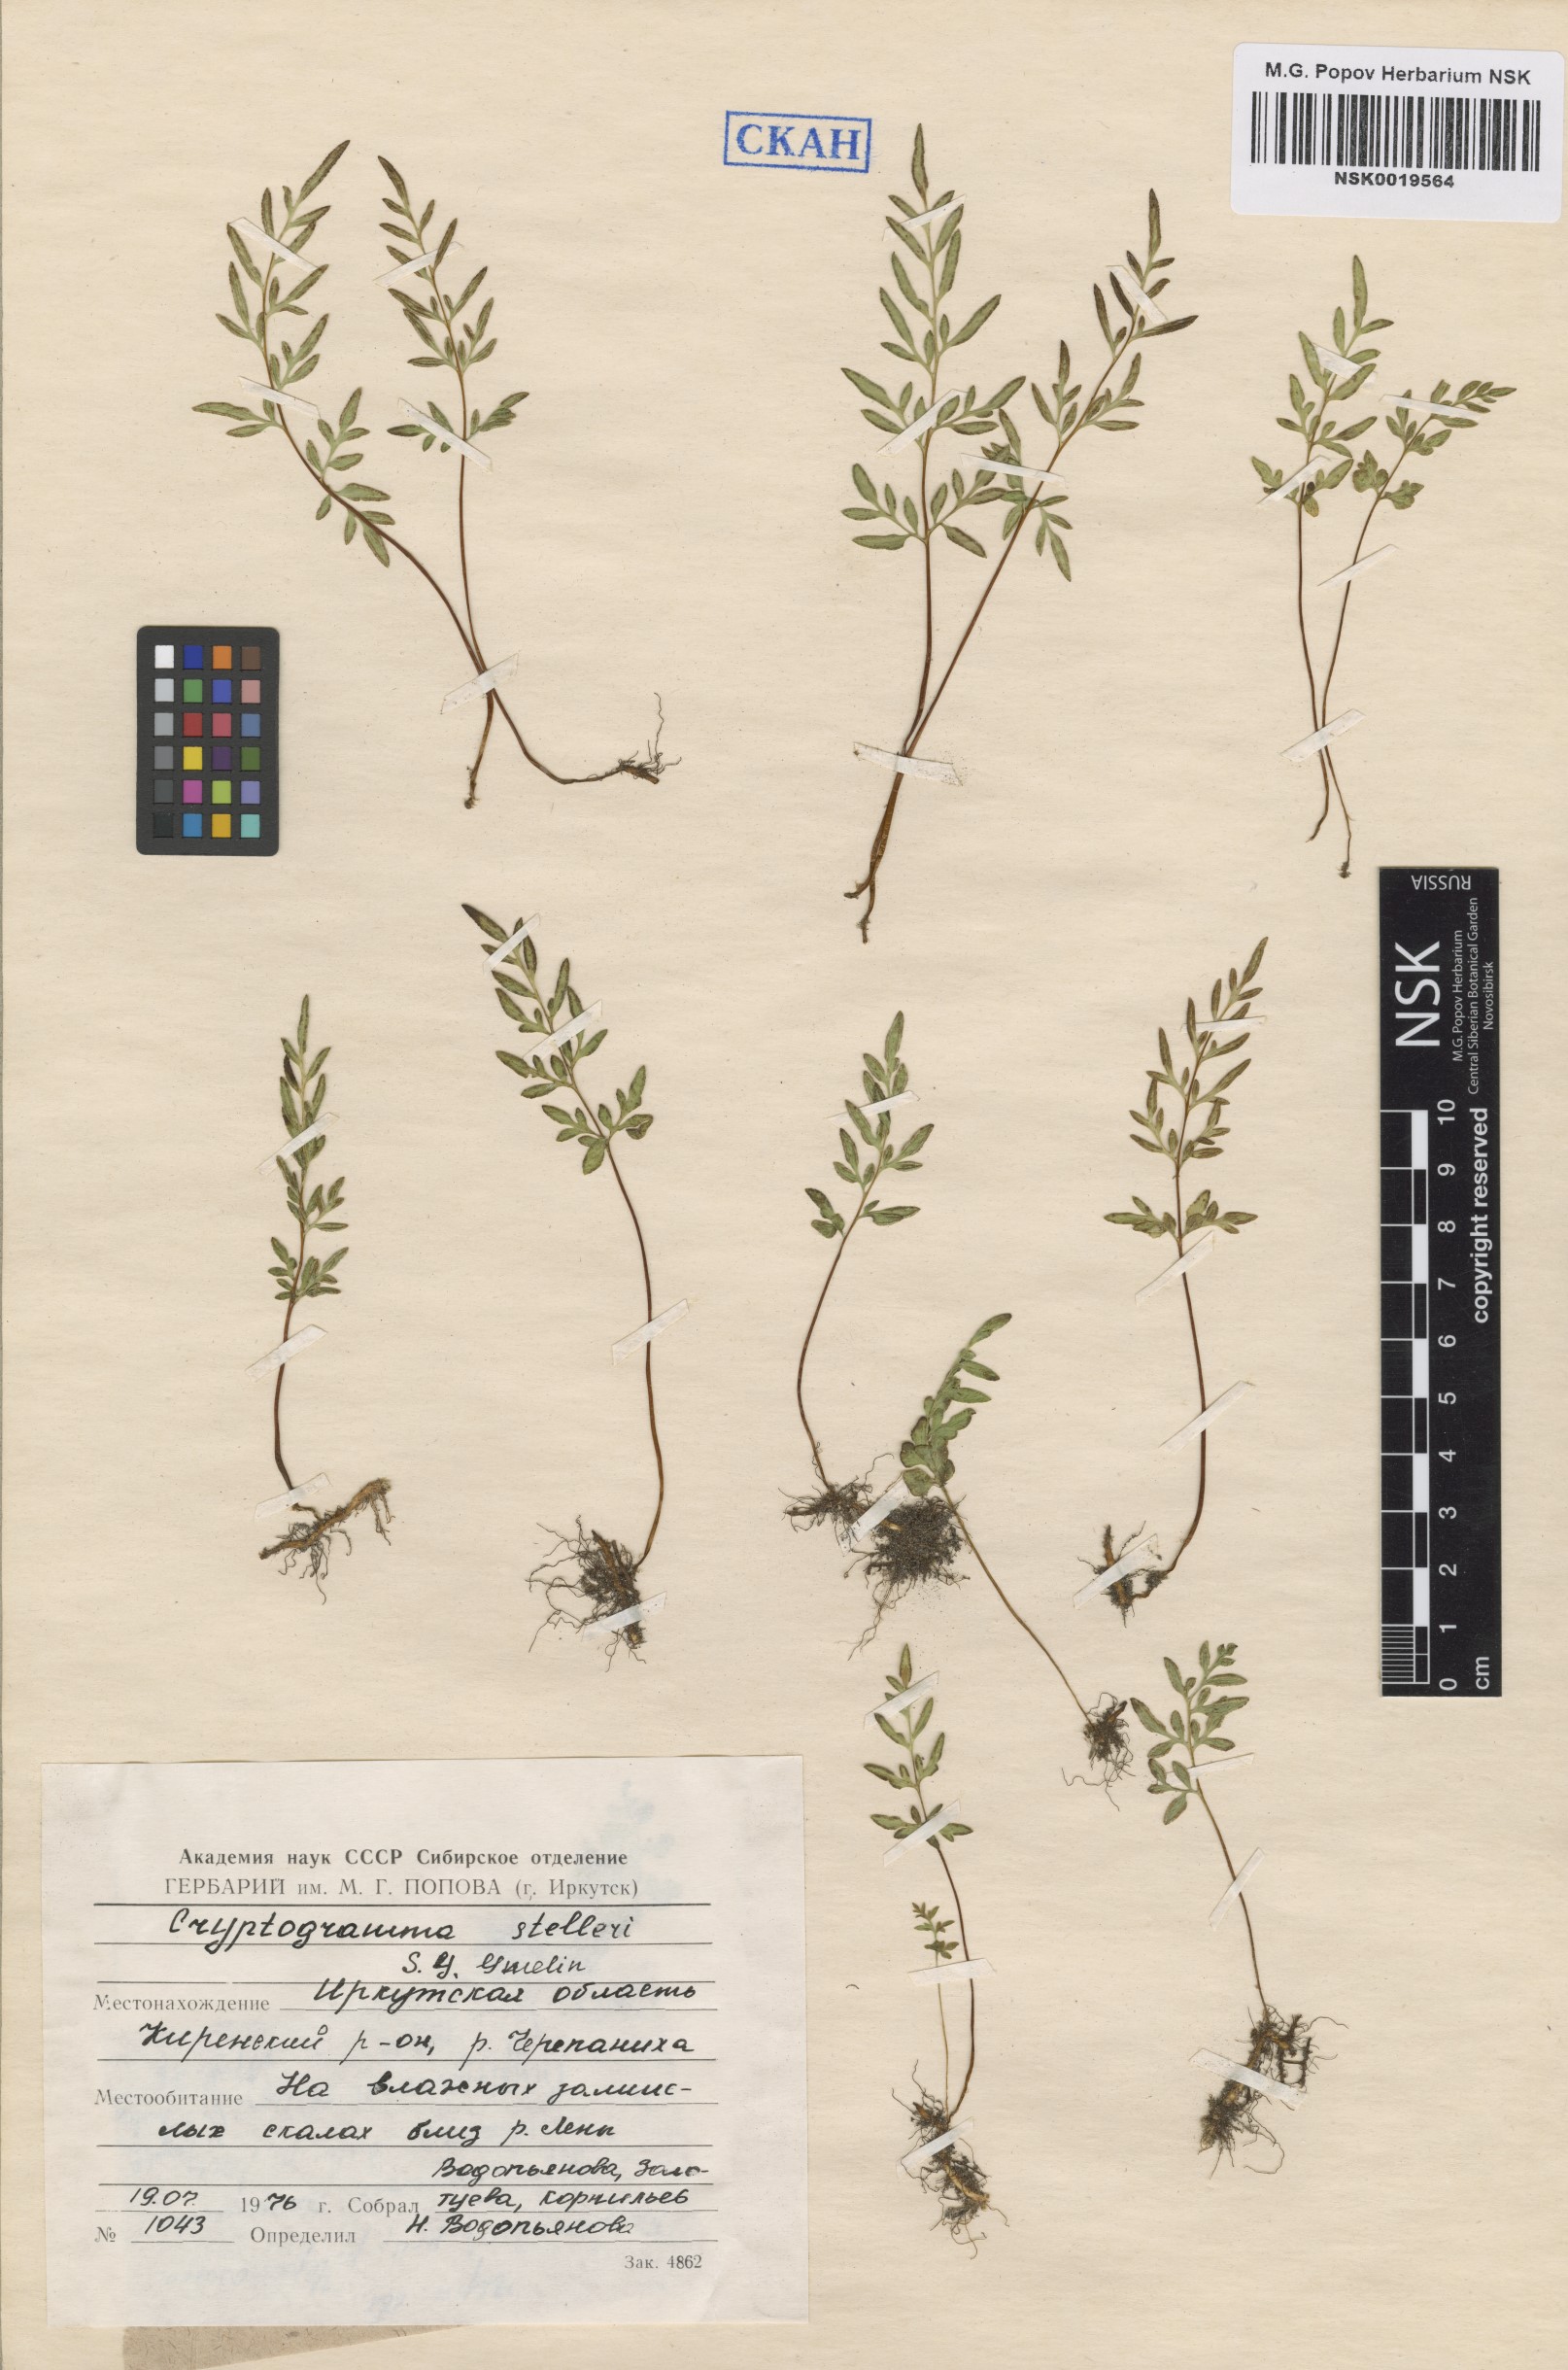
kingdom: Plantae
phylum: Tracheophyta
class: Polypodiopsida
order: Polypodiales
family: Pteridaceae
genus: Cryptogramma
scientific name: Cryptogramma stelleri
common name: Cliff-brake
